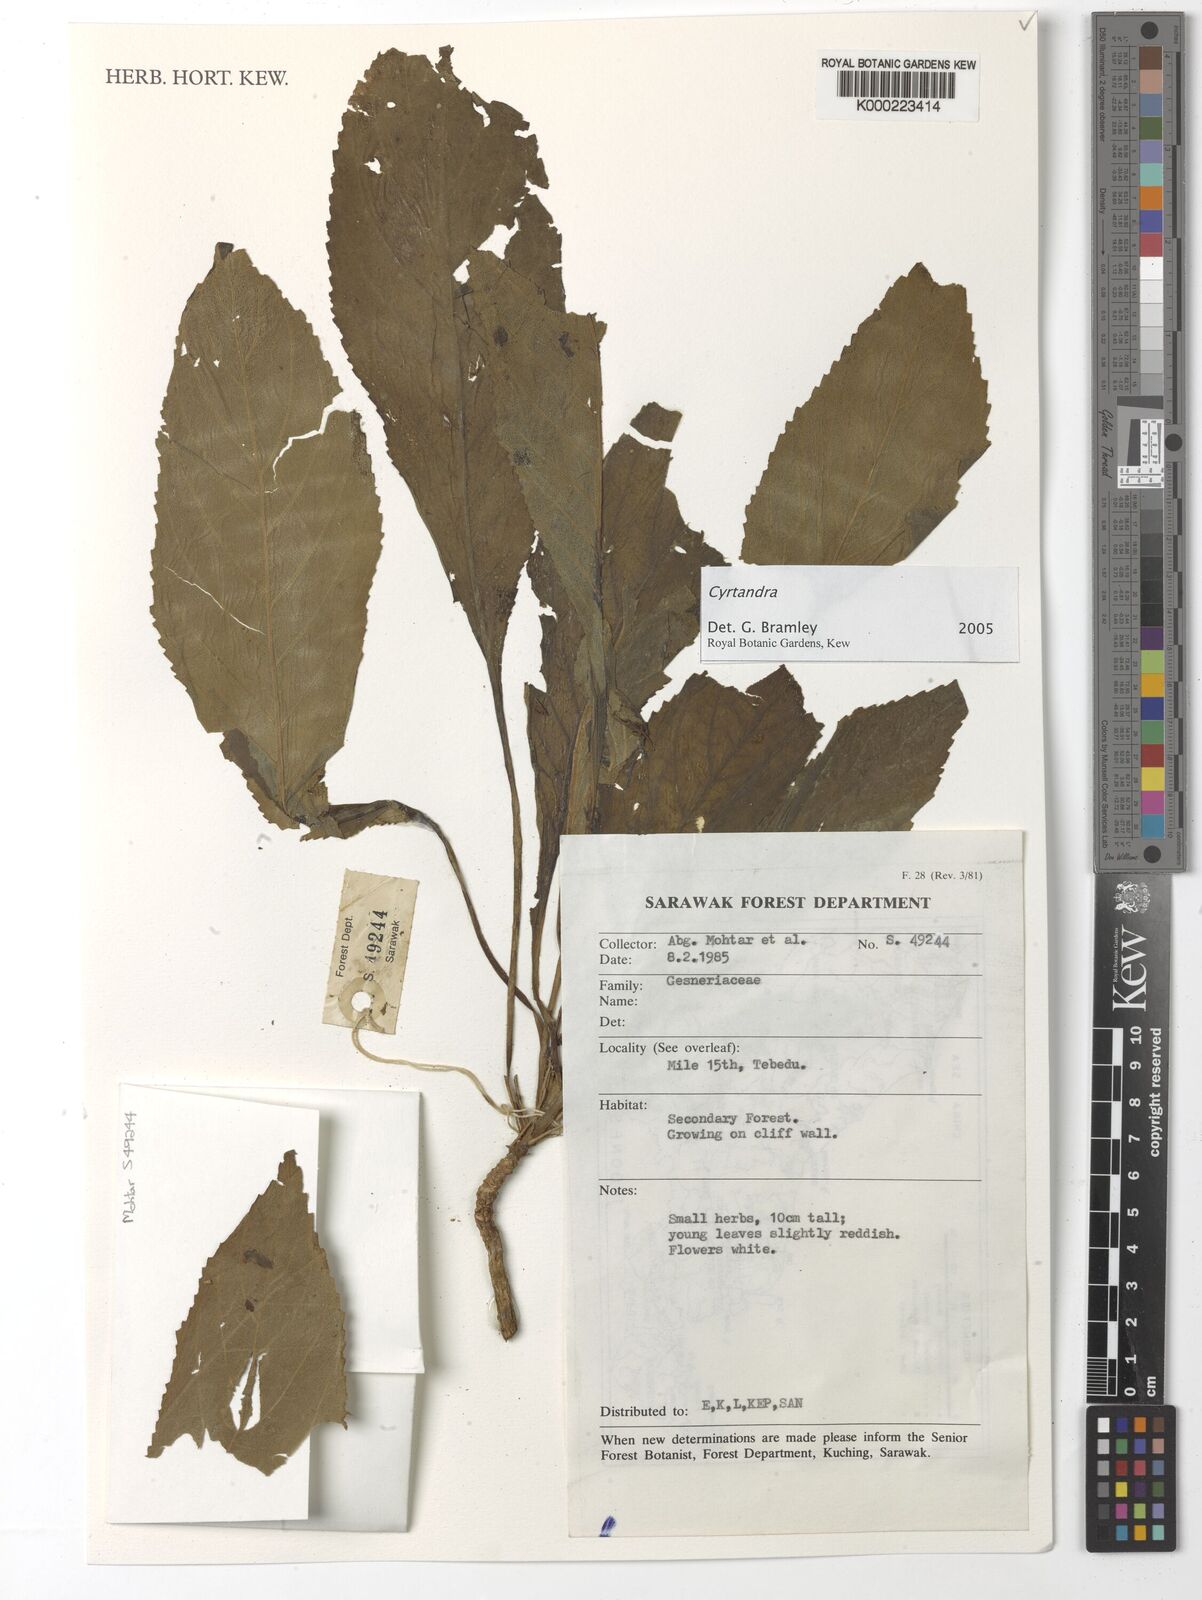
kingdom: Plantae
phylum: Tracheophyta
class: Magnoliopsida
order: Lamiales
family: Gesneriaceae
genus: Cyrtandra
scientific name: Cyrtandra
